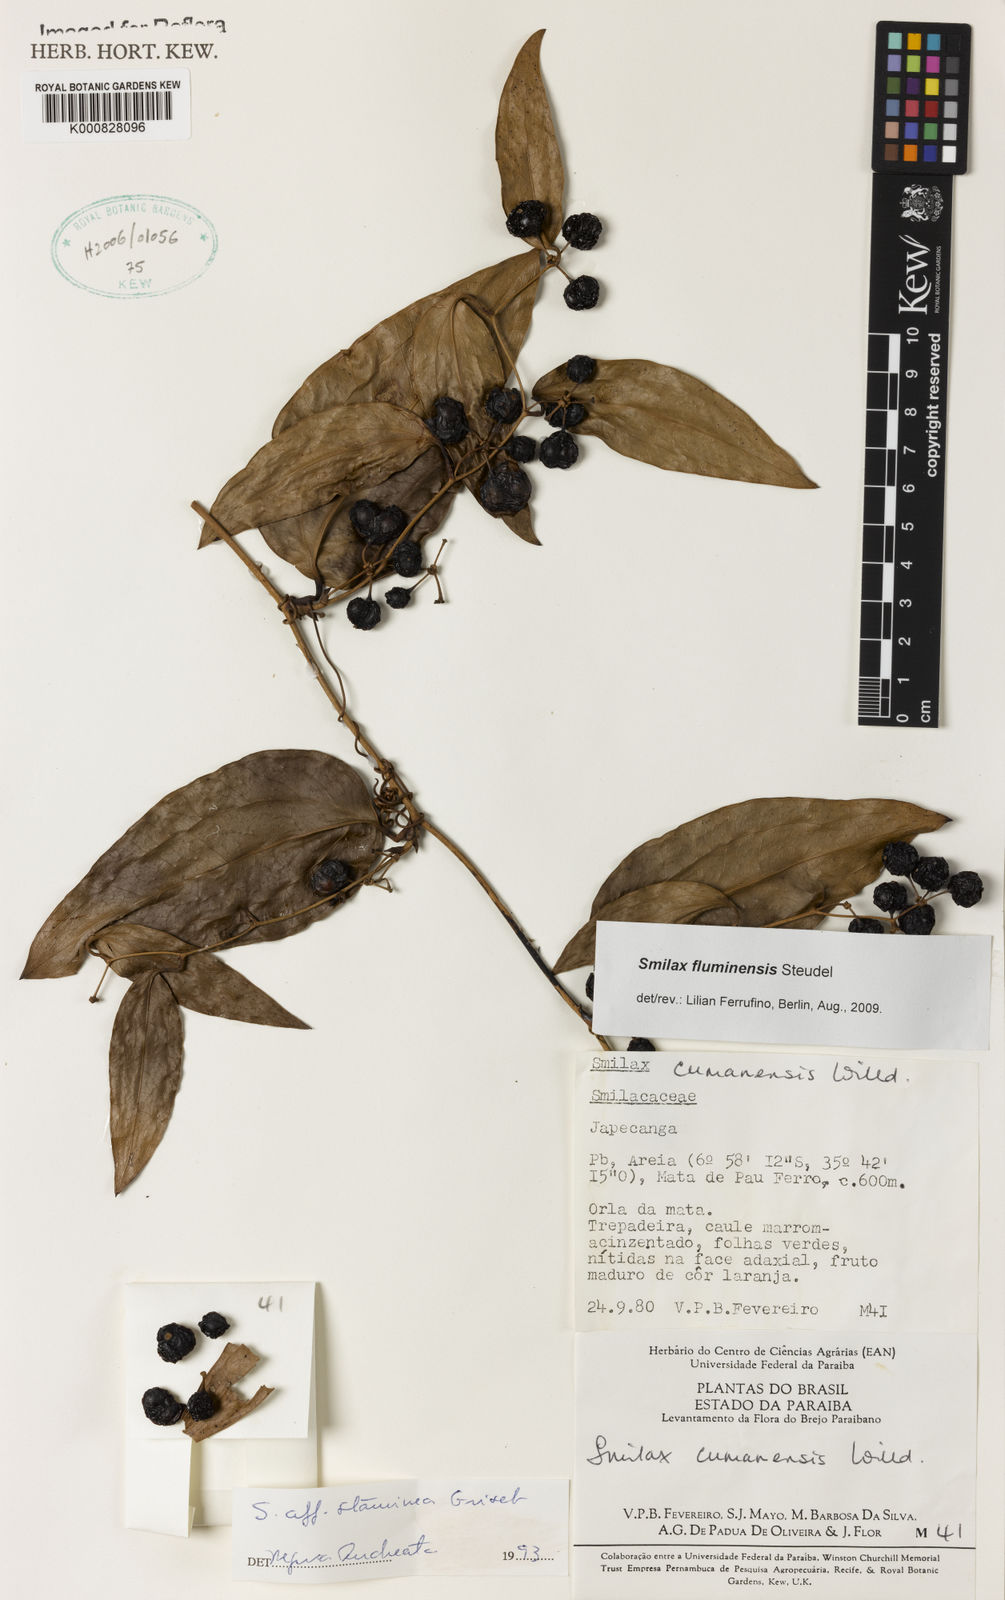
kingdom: Plantae
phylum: Tracheophyta
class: Liliopsida
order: Liliales
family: Smilacaceae
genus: Smilax
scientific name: Smilax fluminensis
